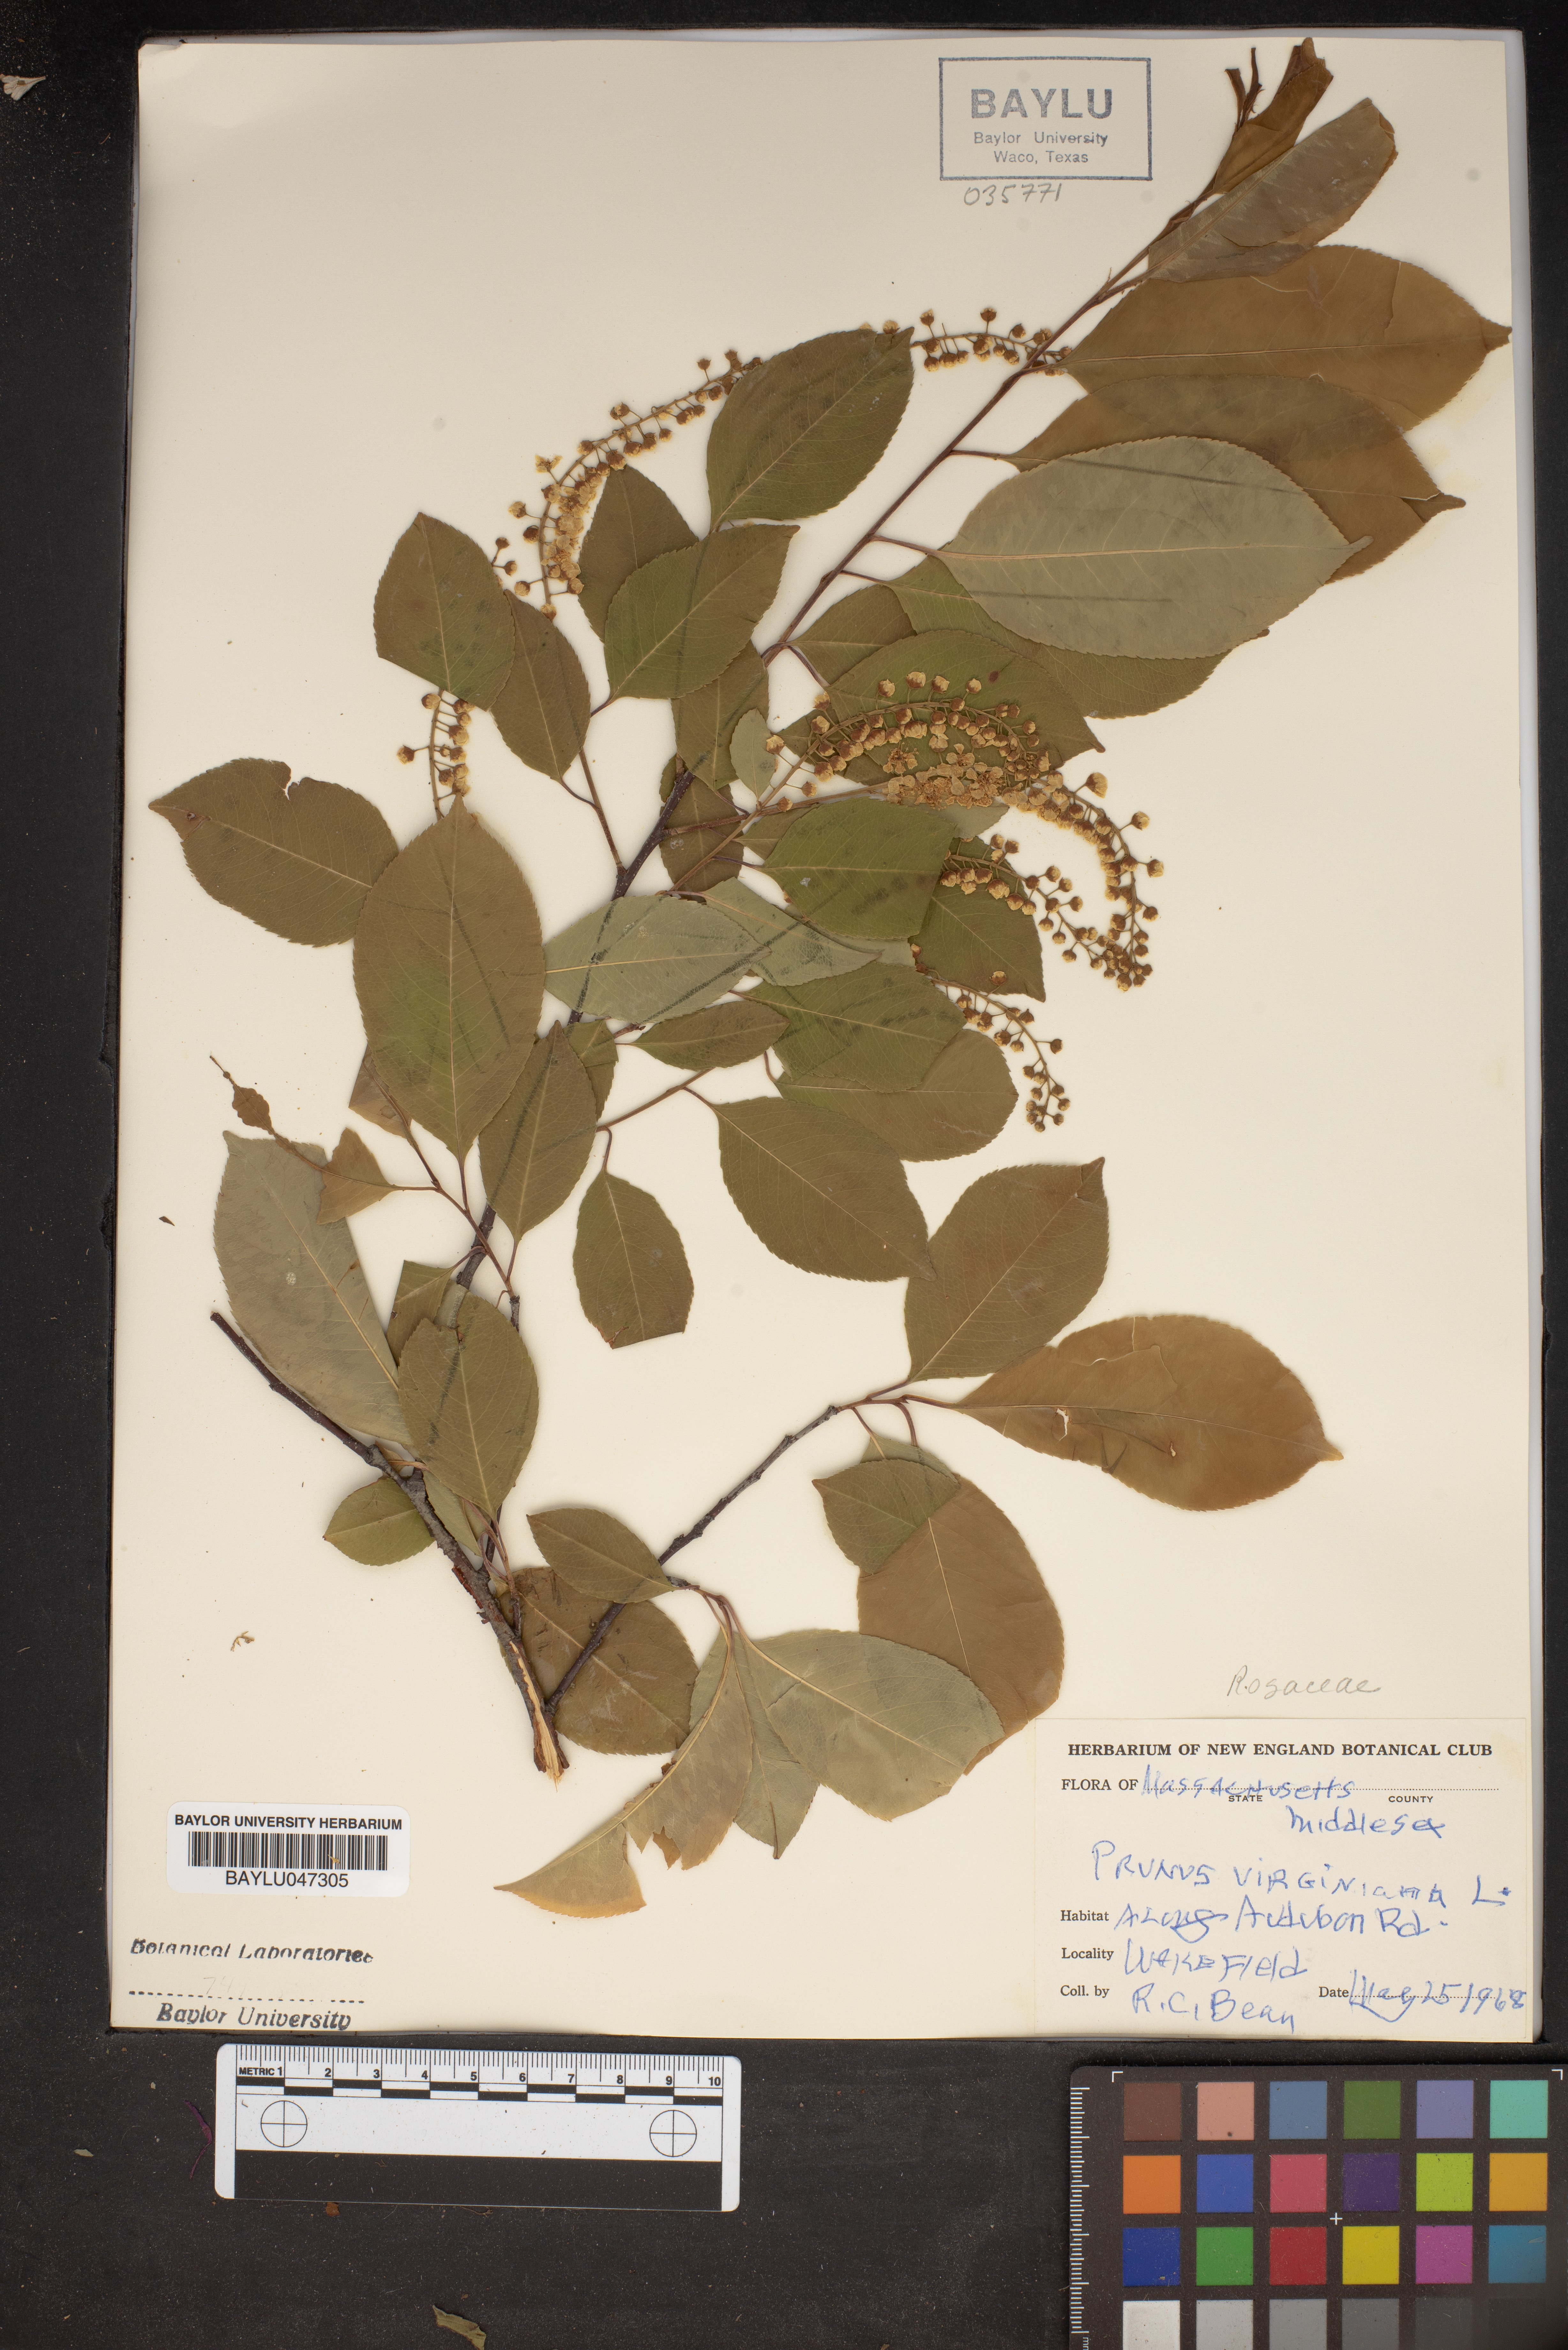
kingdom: Plantae
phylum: Tracheophyta
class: Magnoliopsida
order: Rosales
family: Rosaceae
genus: Prunus
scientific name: Prunus virginiana
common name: Chokecherry
